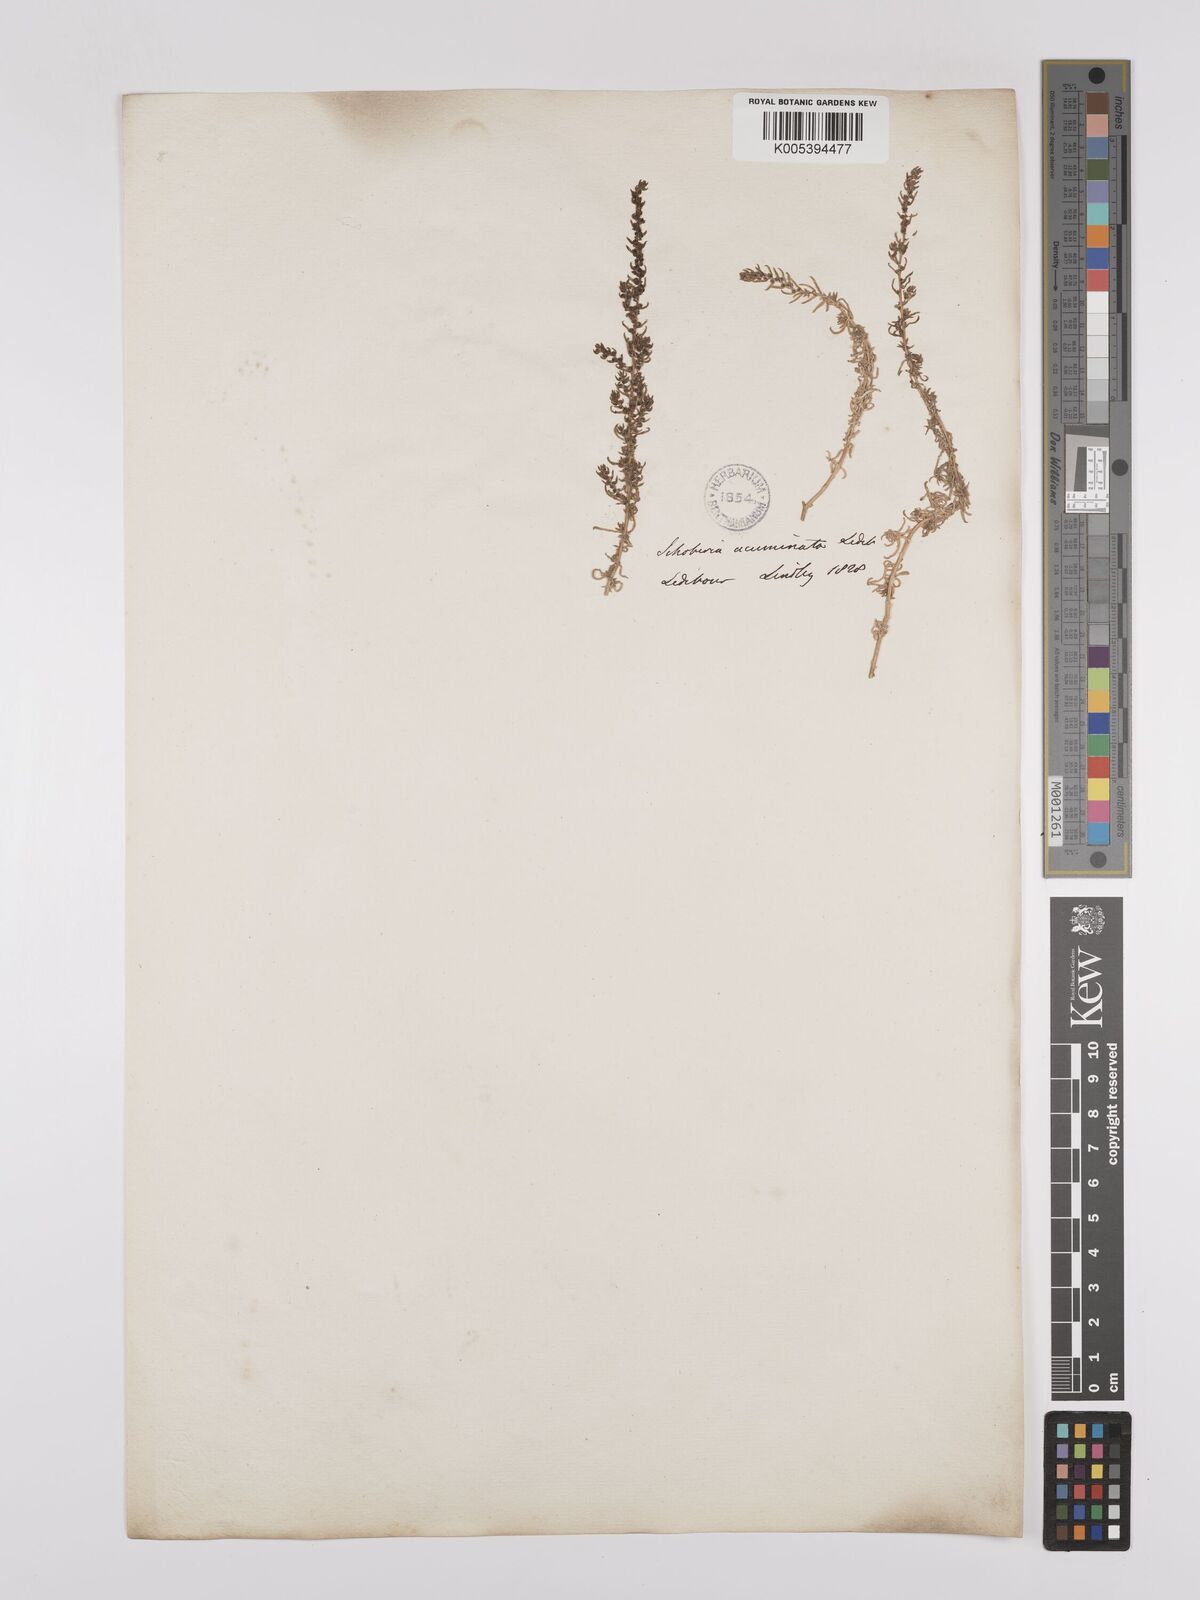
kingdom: Plantae
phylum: Tracheophyta
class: Magnoliopsida
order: Caryophyllales
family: Amaranthaceae
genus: Suaeda
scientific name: Suaeda acuminata
